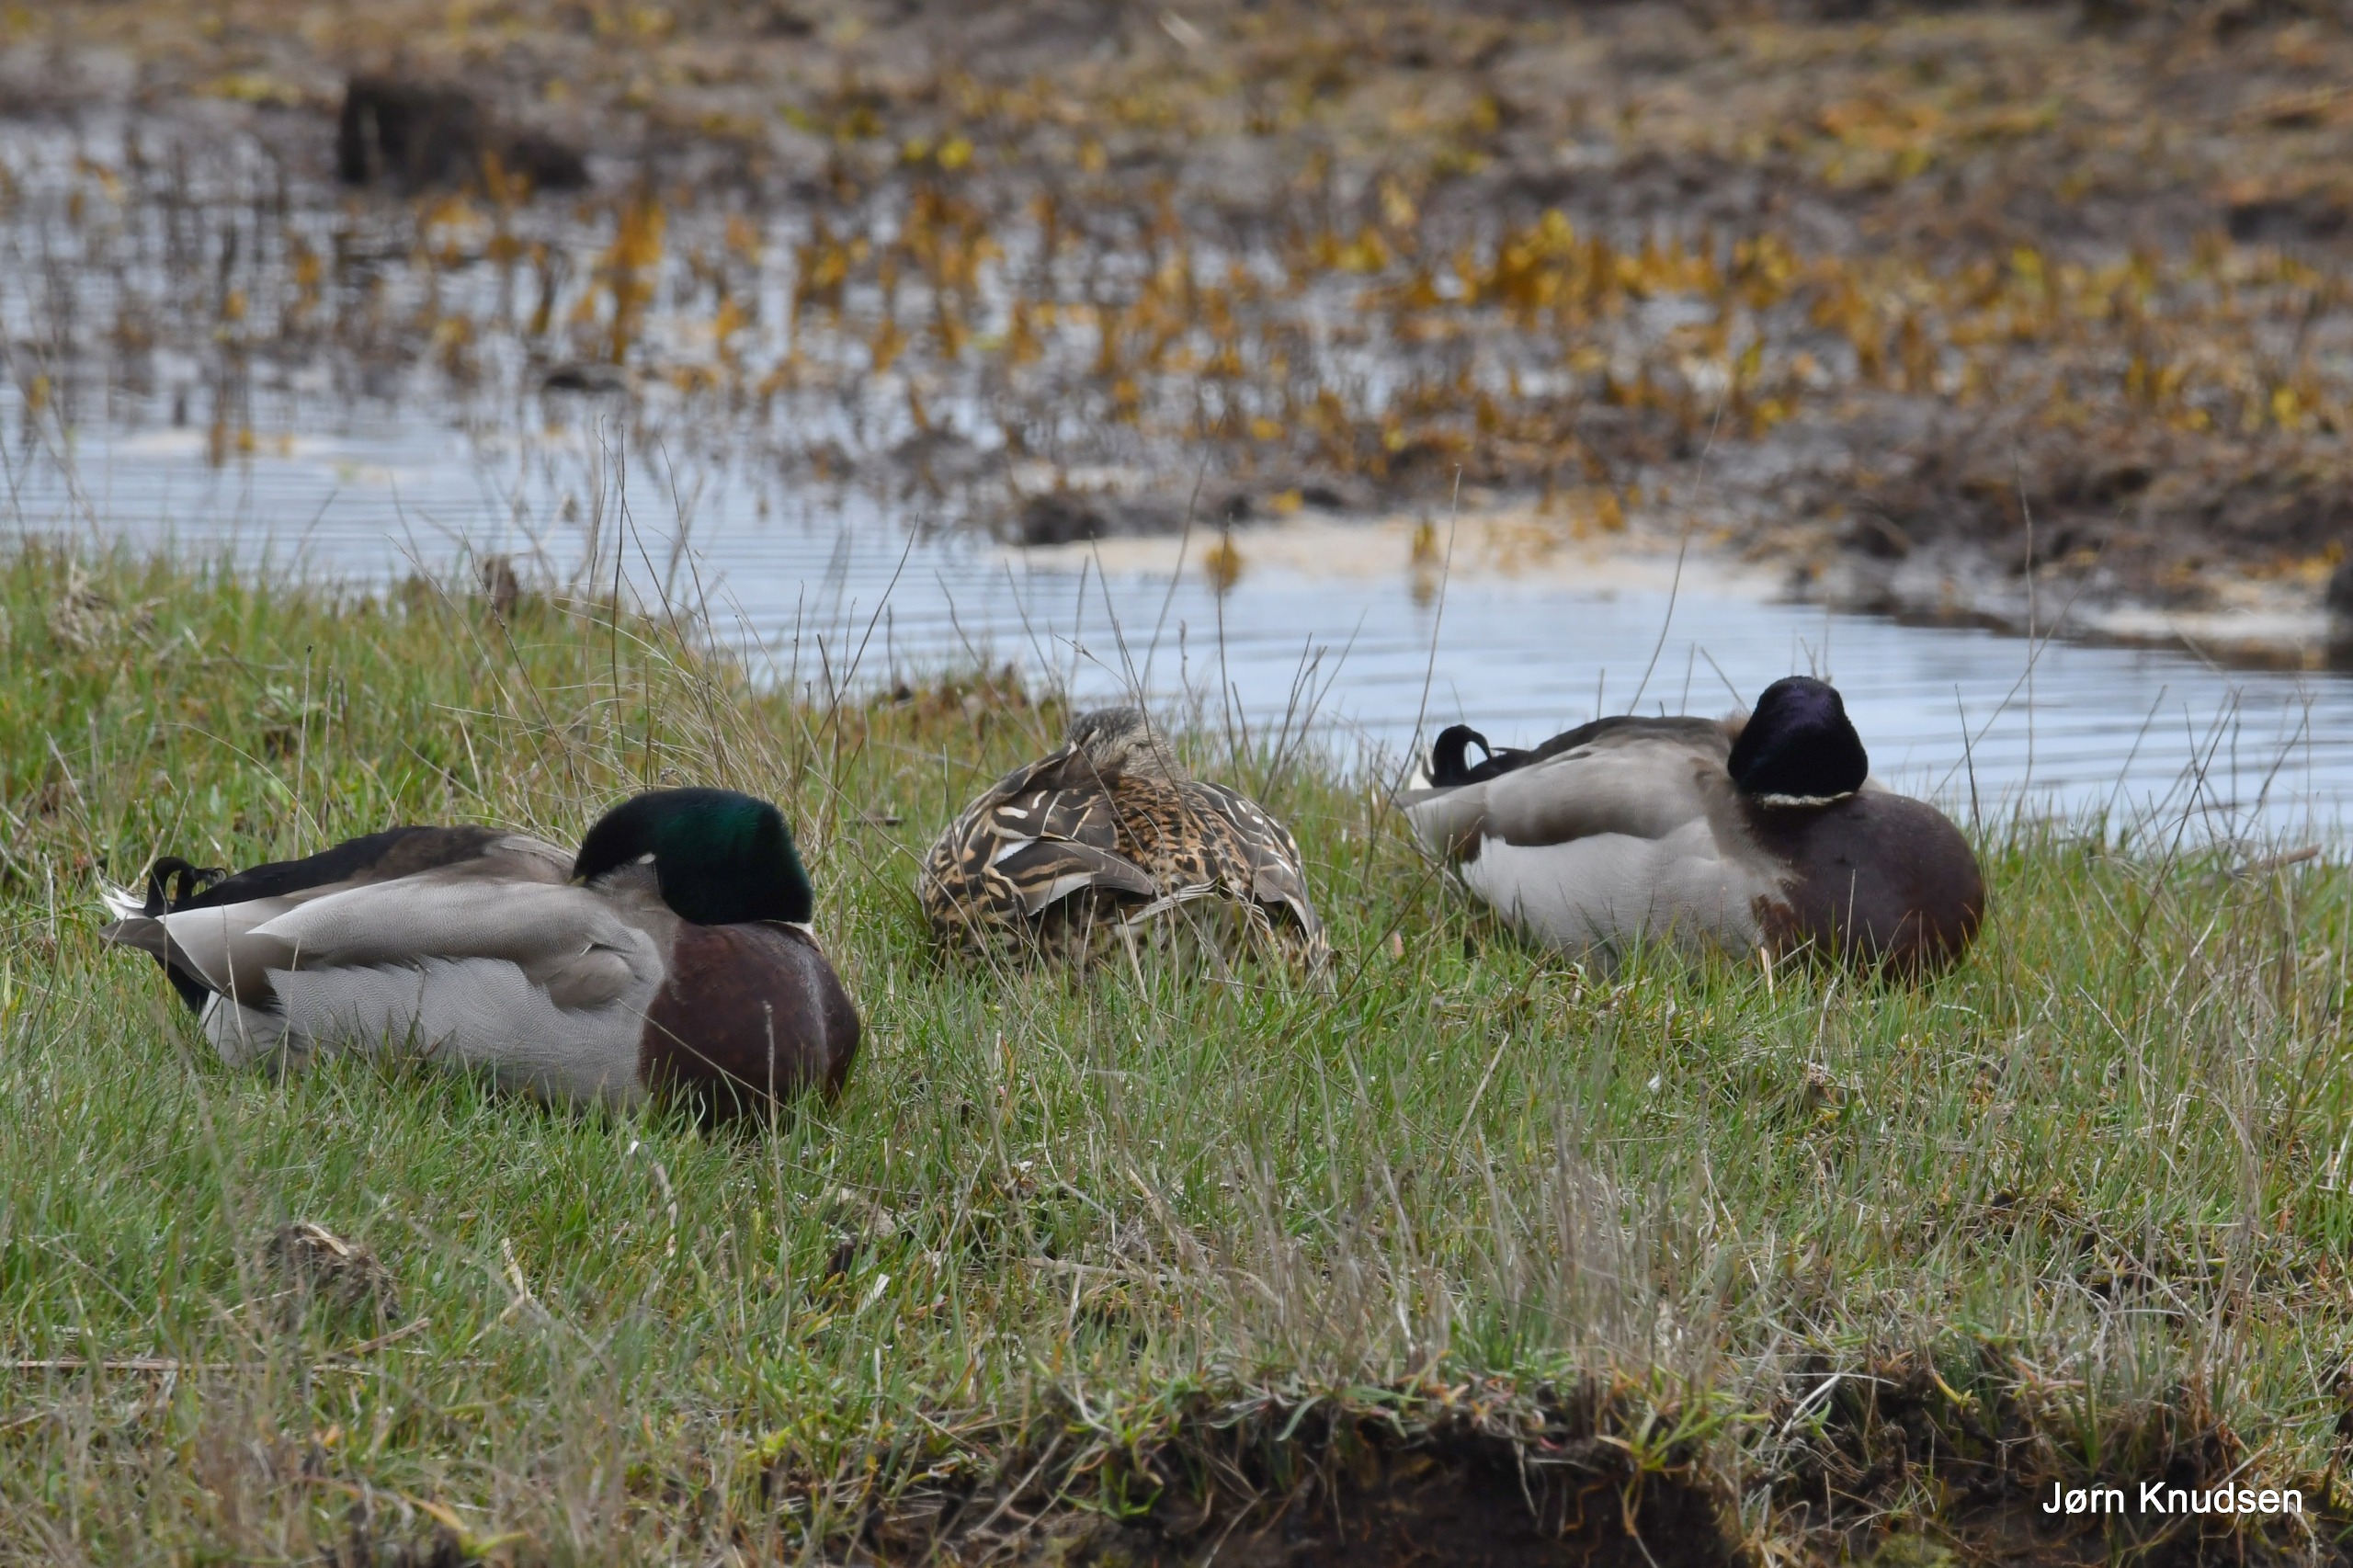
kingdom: Animalia
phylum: Chordata
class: Aves
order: Anseriformes
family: Anatidae
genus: Anas
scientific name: Anas platyrhynchos
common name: Gråand
